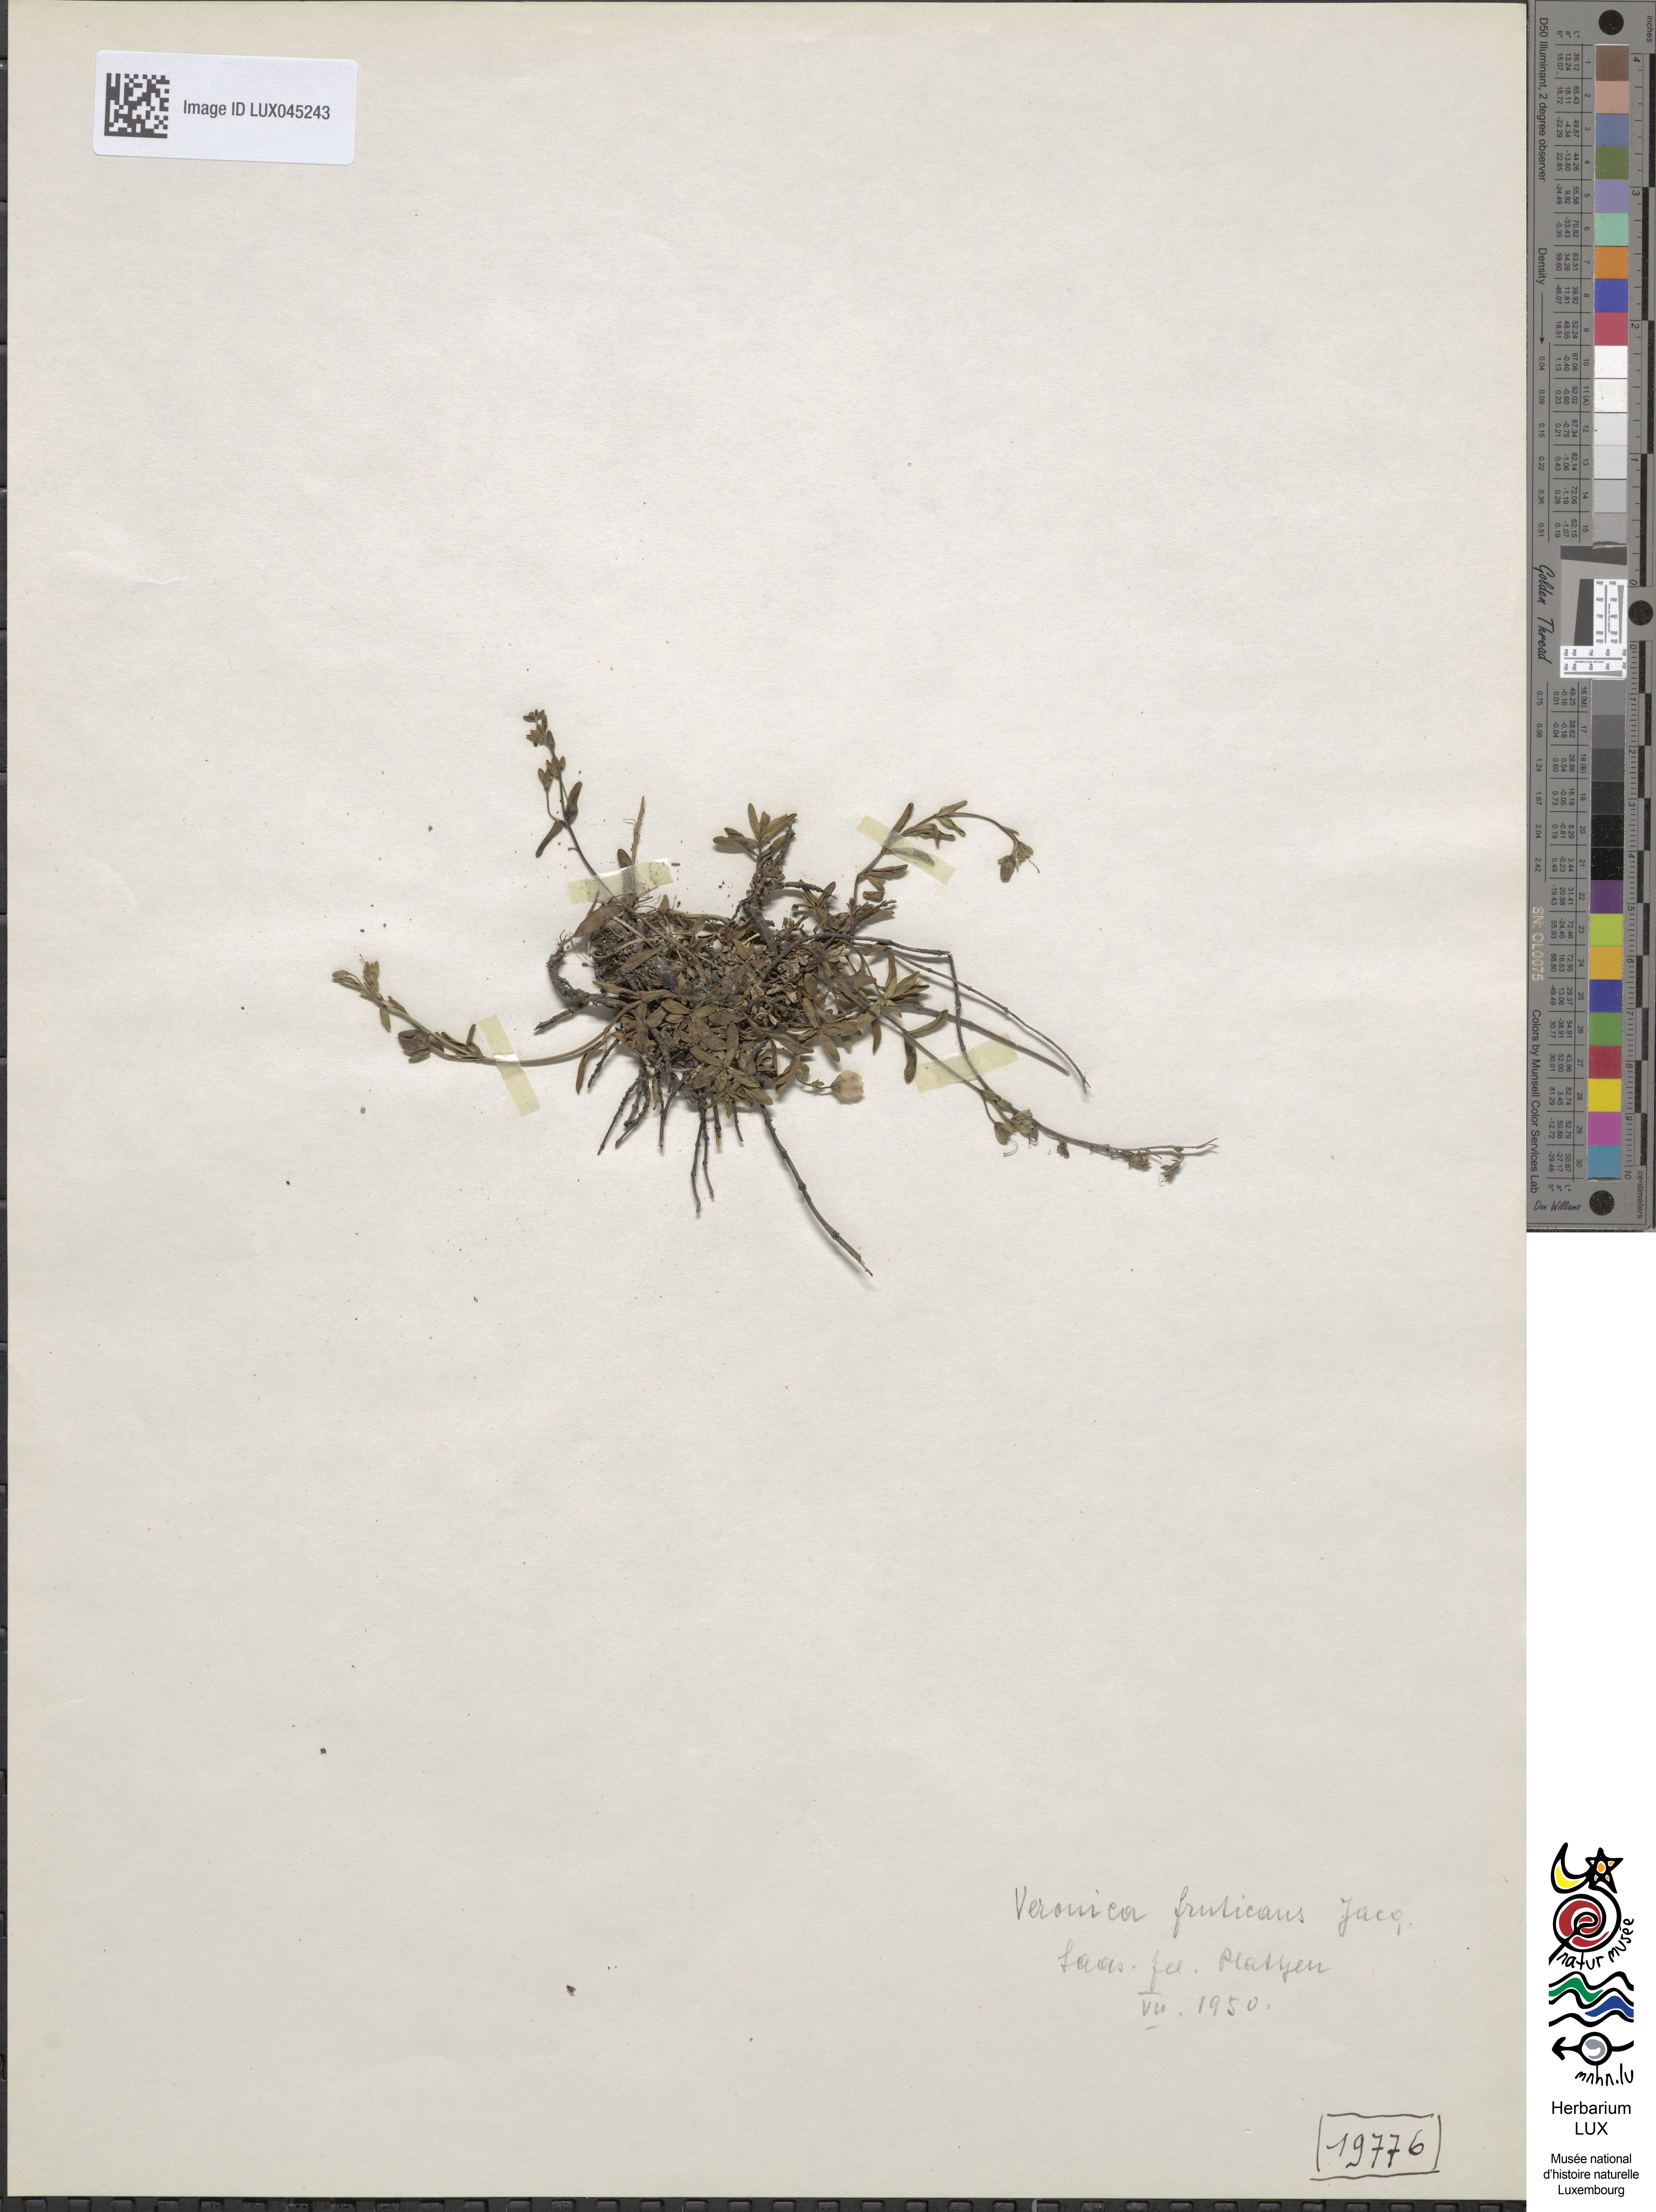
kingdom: Plantae
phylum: Tracheophyta
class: Magnoliopsida
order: Lamiales
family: Plantaginaceae
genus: Veronica
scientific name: Veronica fruticans
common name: Rock speedwell
